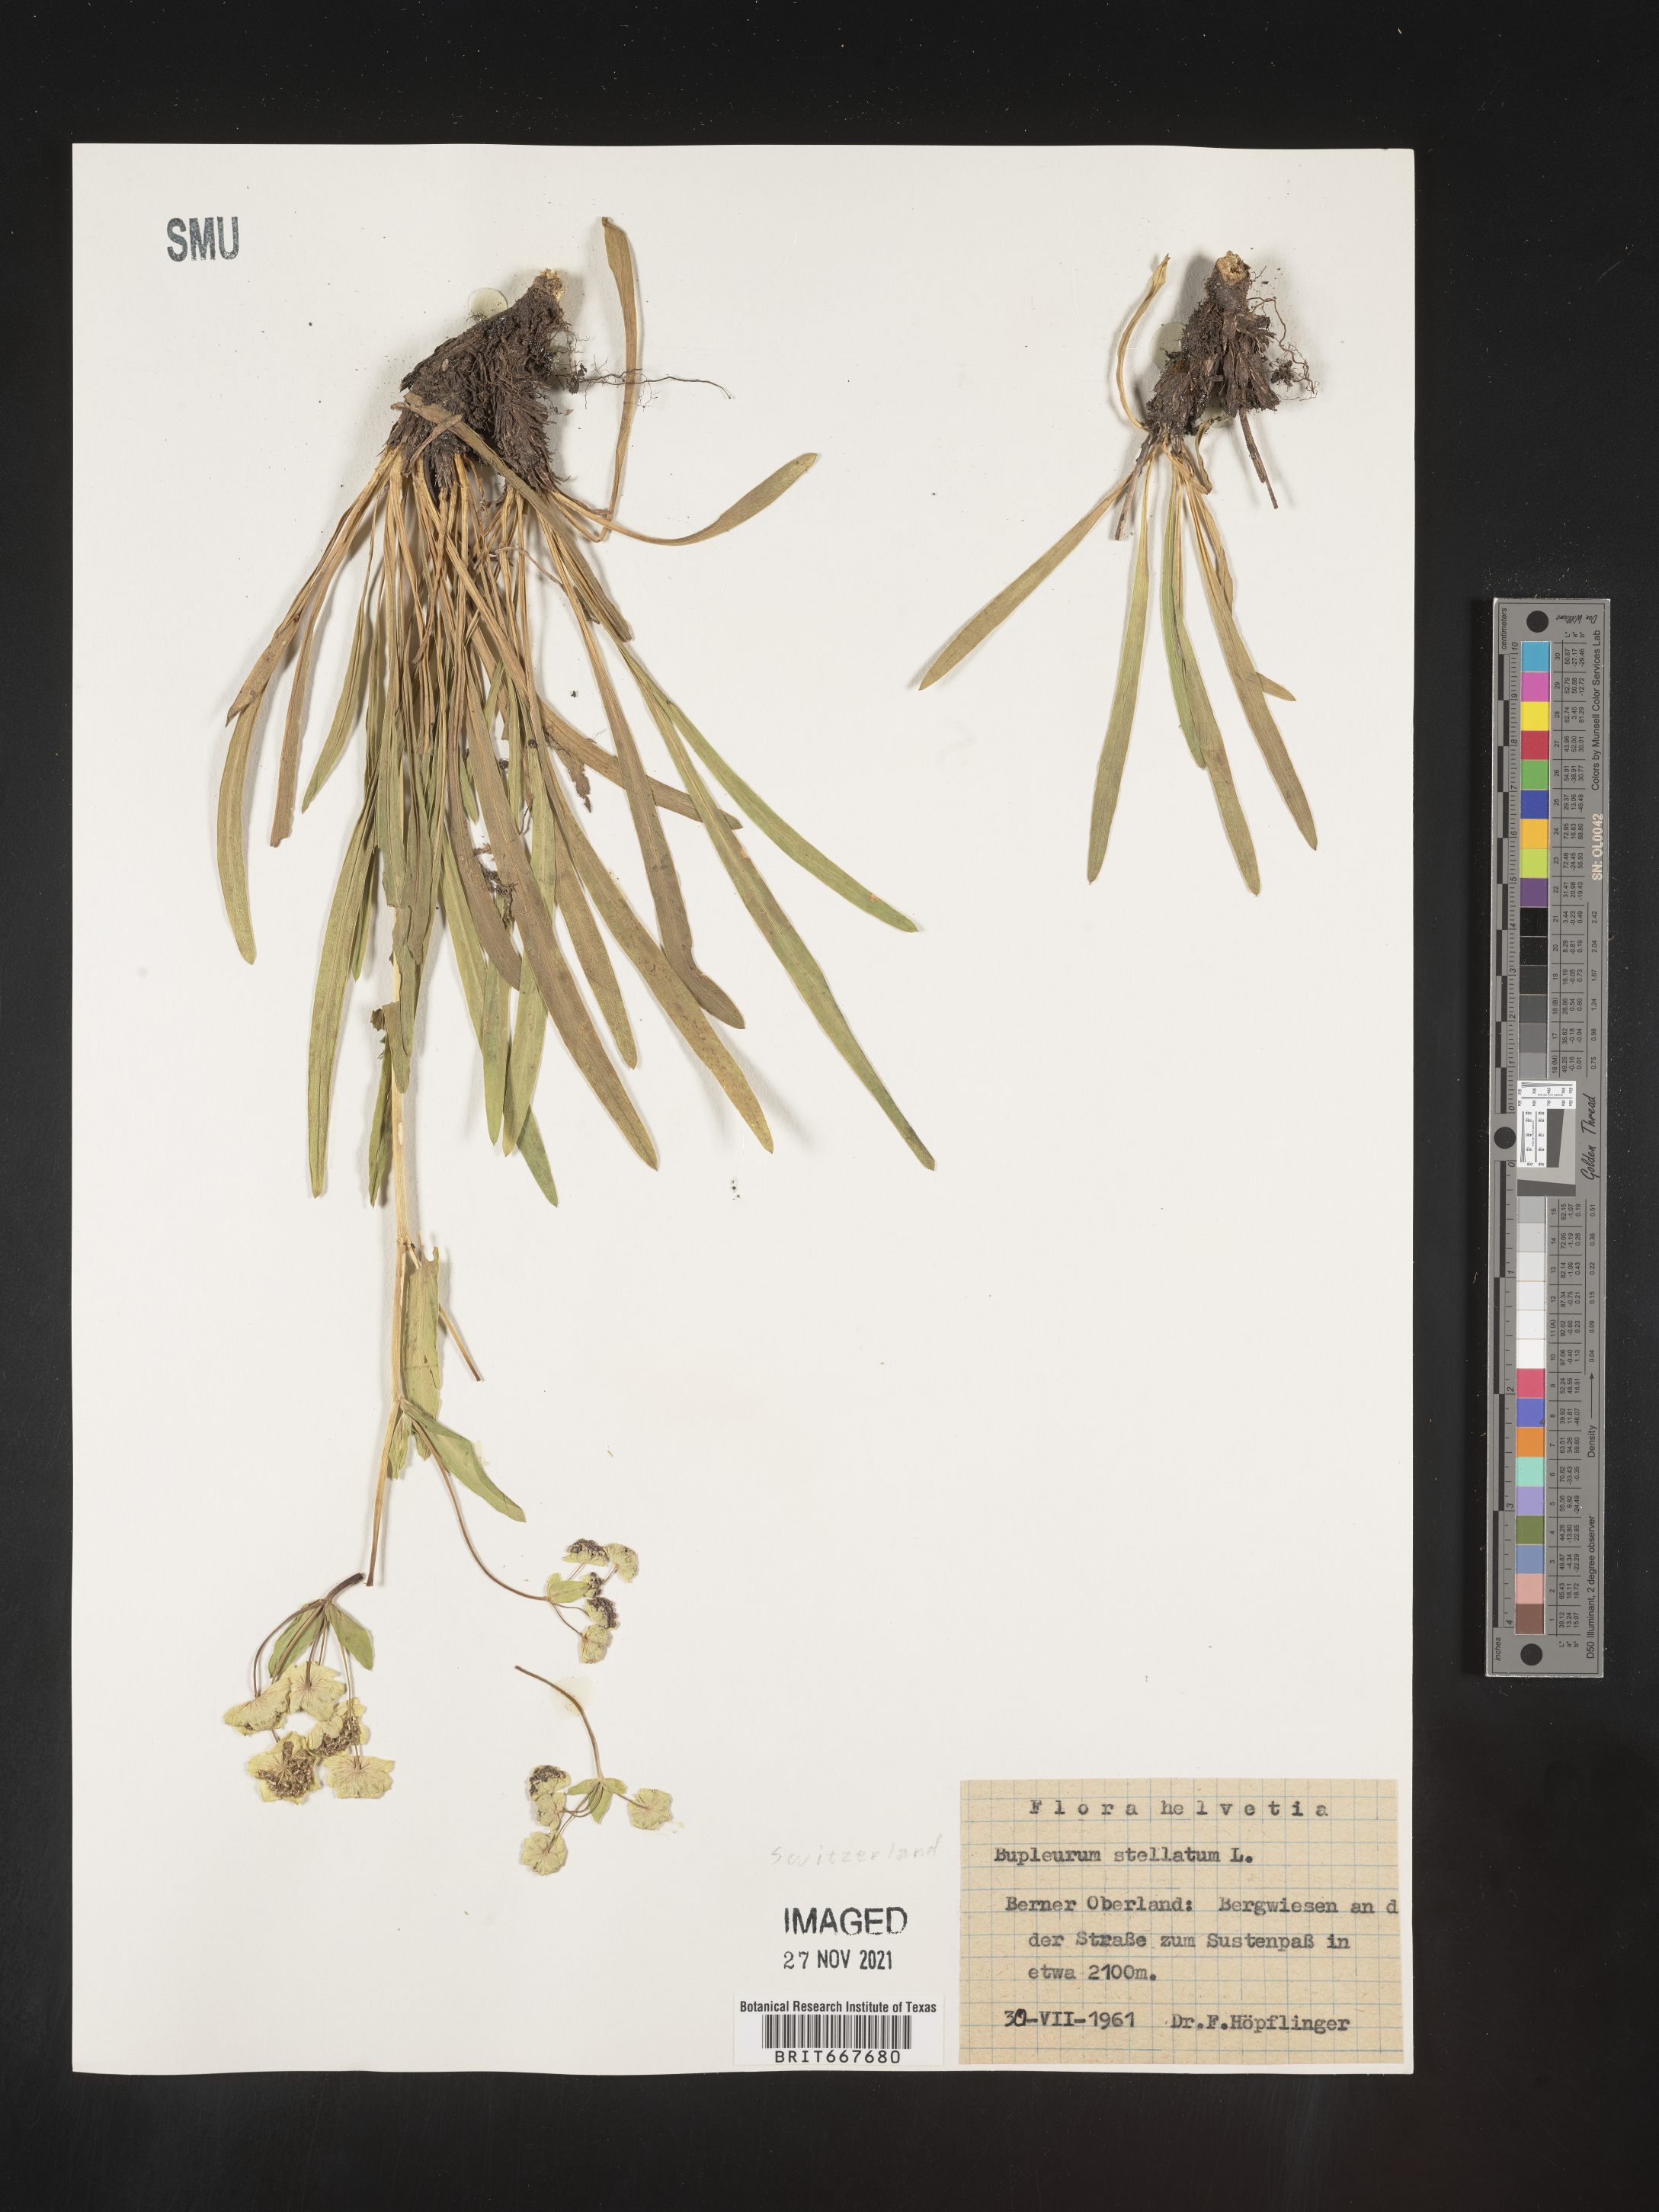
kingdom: Plantae
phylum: Tracheophyta
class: Magnoliopsida
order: Apiales
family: Apiaceae
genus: Bupleurum
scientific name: Bupleurum
